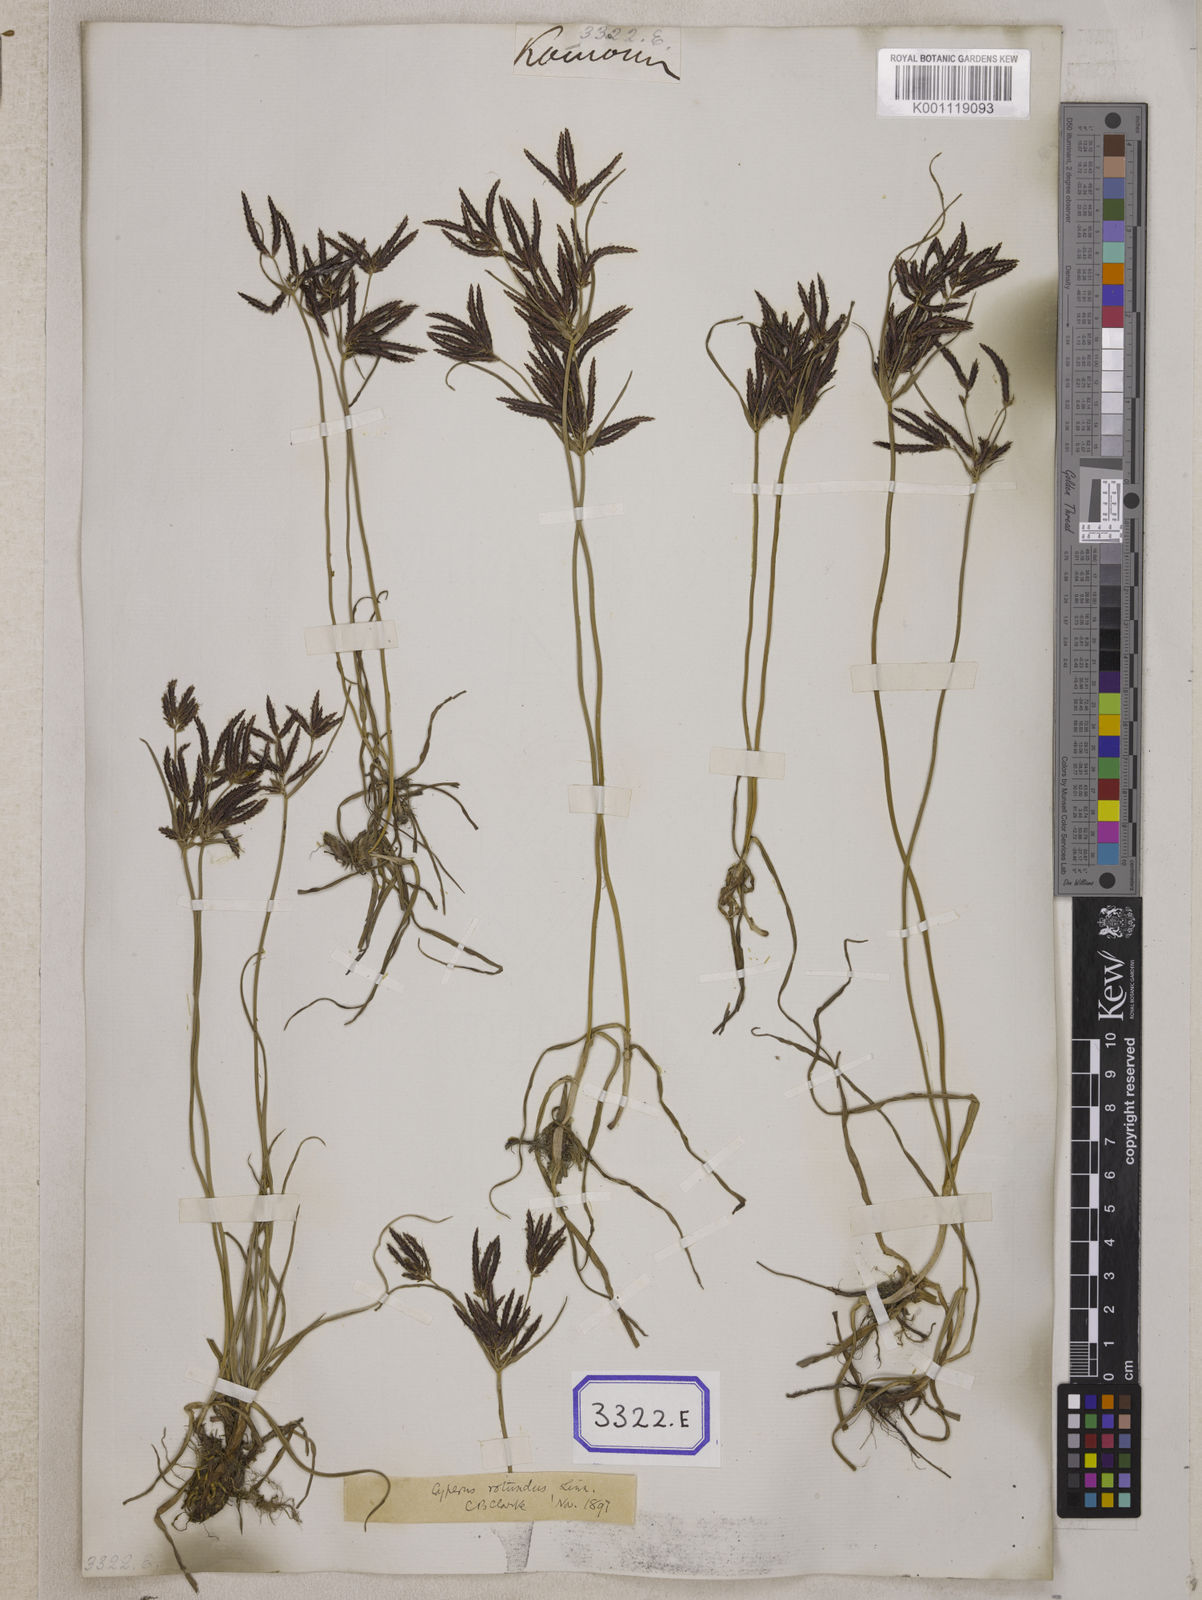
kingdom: Plantae
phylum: Tracheophyta
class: Liliopsida
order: Poales
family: Cyperaceae
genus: Cyperus
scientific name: Cyperus
